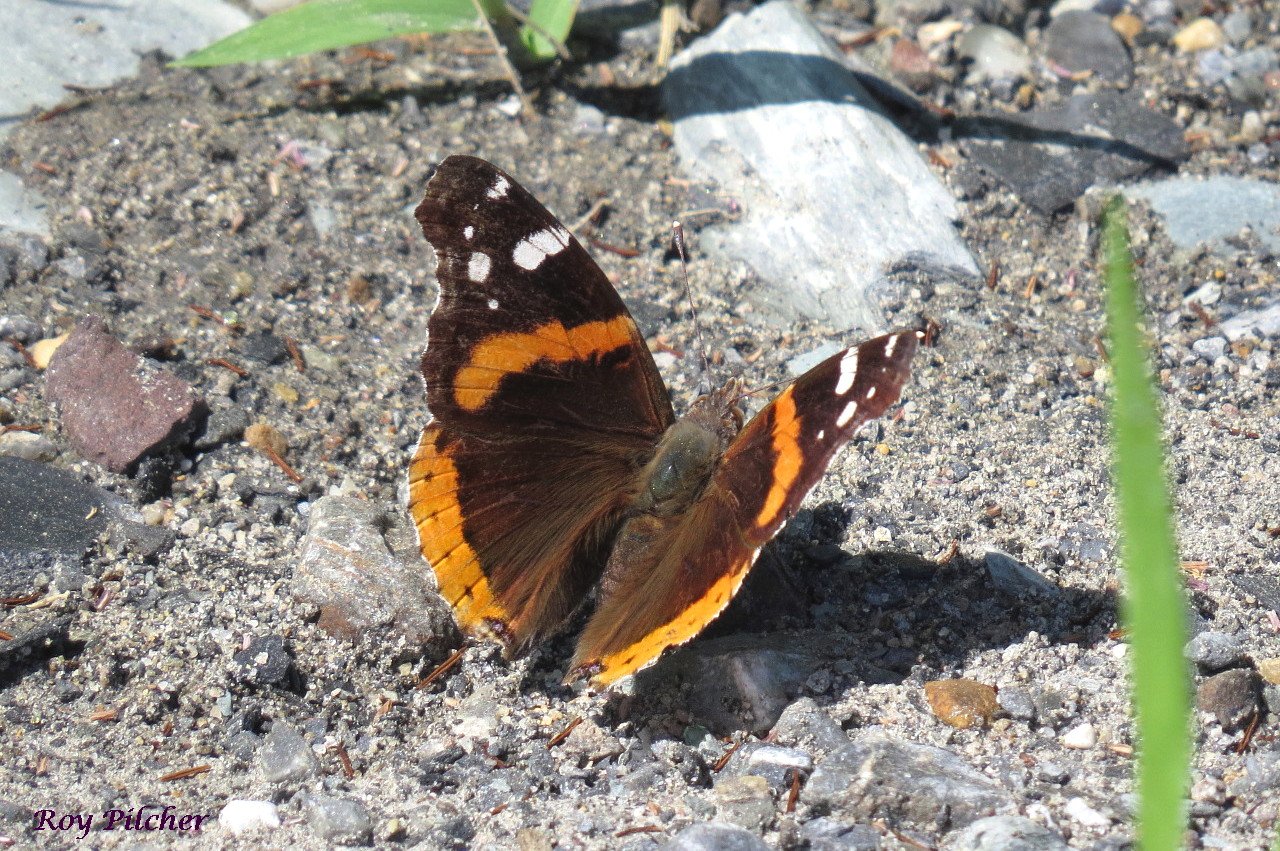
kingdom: Animalia
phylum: Arthropoda
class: Insecta
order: Lepidoptera
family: Nymphalidae
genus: Vanessa
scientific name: Vanessa atalanta
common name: Red Admiral
